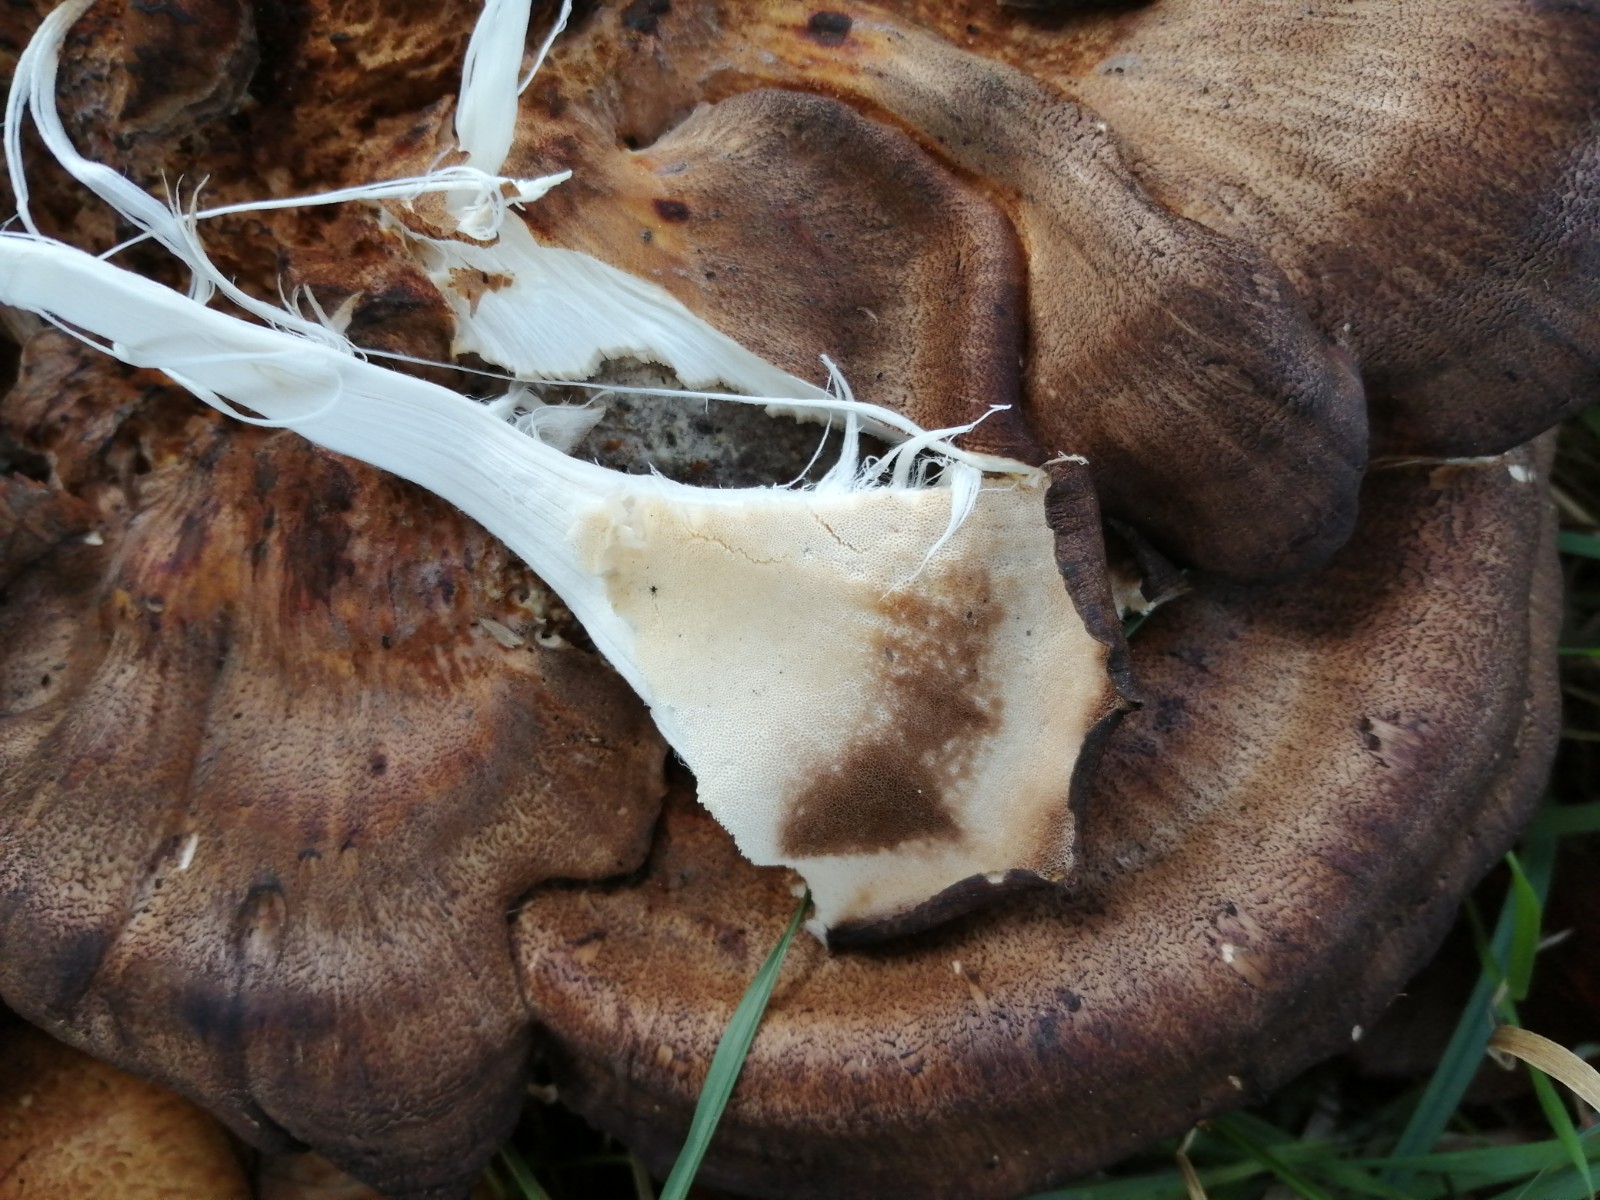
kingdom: Fungi
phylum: Basidiomycota
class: Agaricomycetes
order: Polyporales
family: Meripilaceae
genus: Meripilus
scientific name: Meripilus giganteus
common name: kæmpeporesvamp
